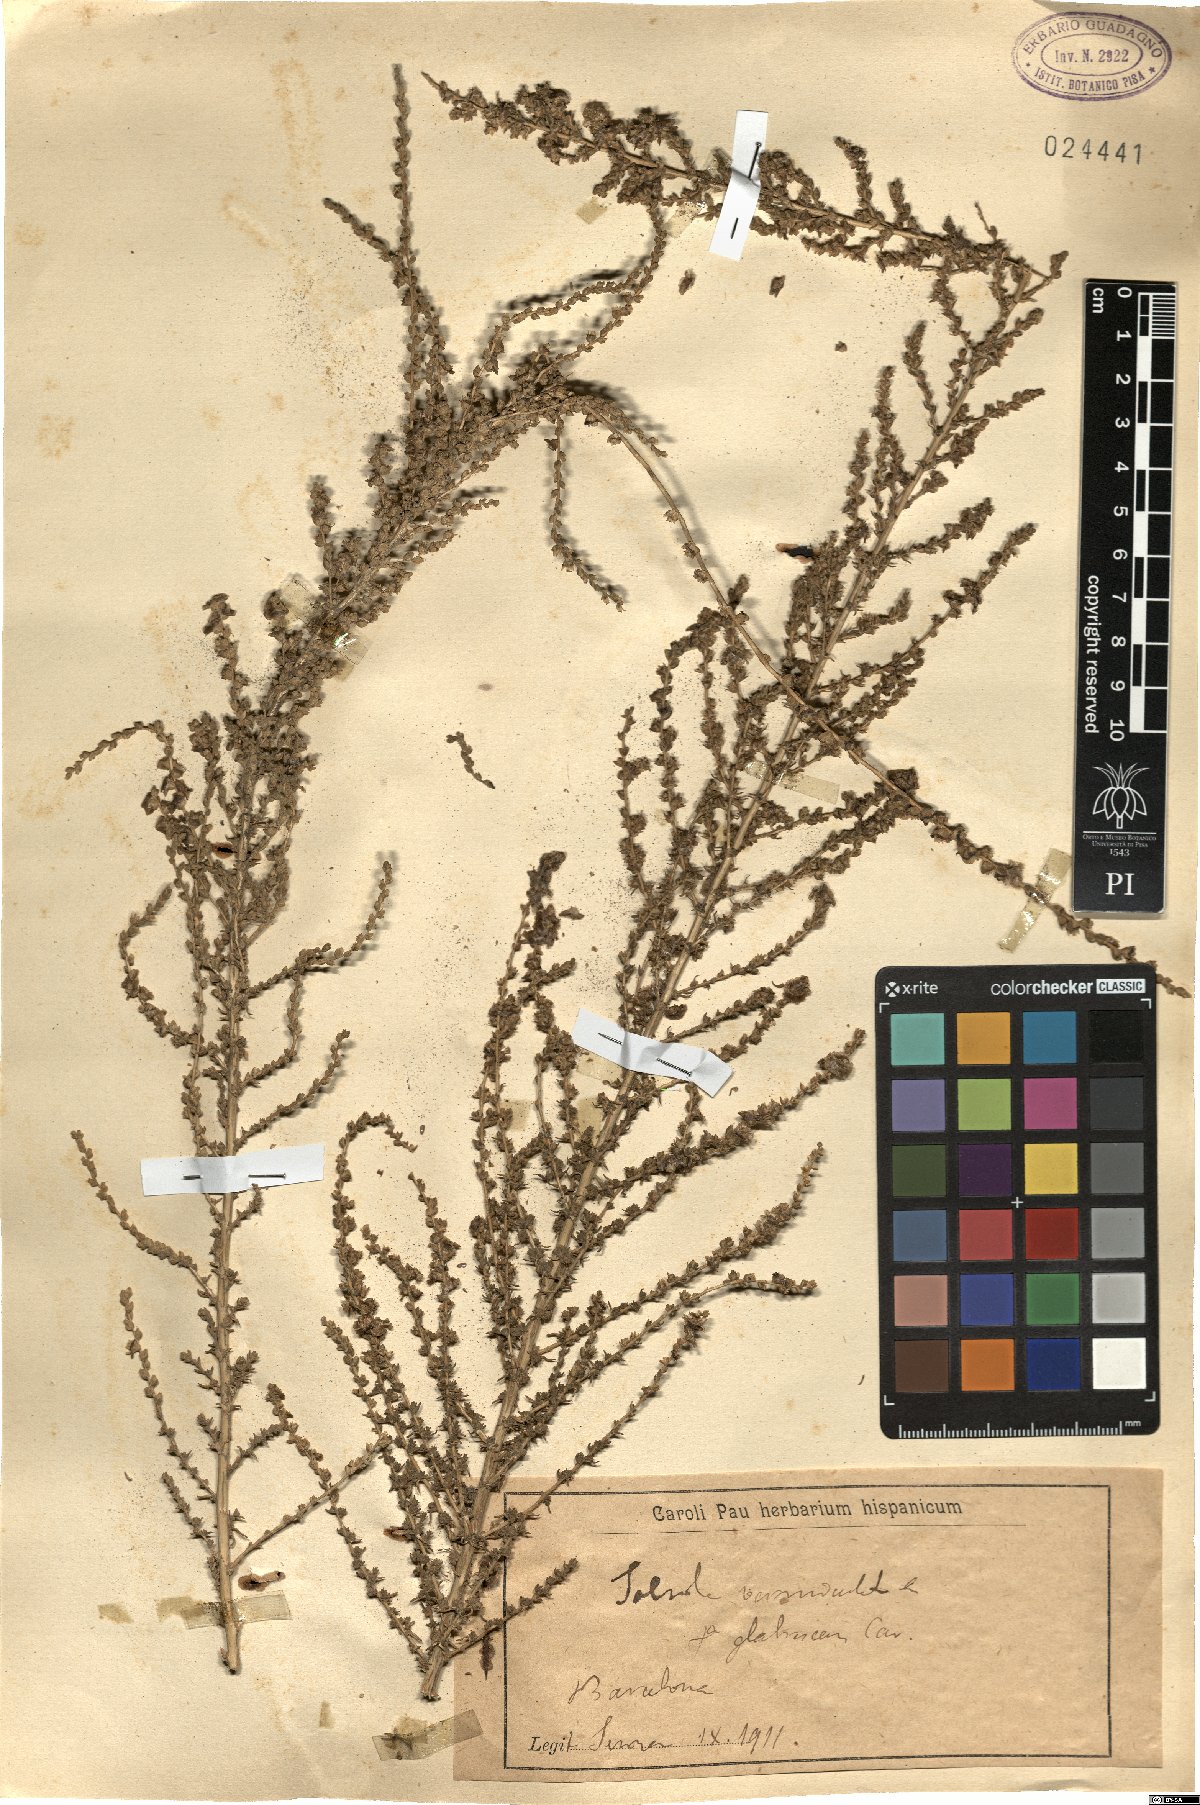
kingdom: Plantae
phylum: Tracheophyta
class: Magnoliopsida
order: Caryophyllales
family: Amaranthaceae
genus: Nitrosalsola
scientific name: Nitrosalsola vermiculata
